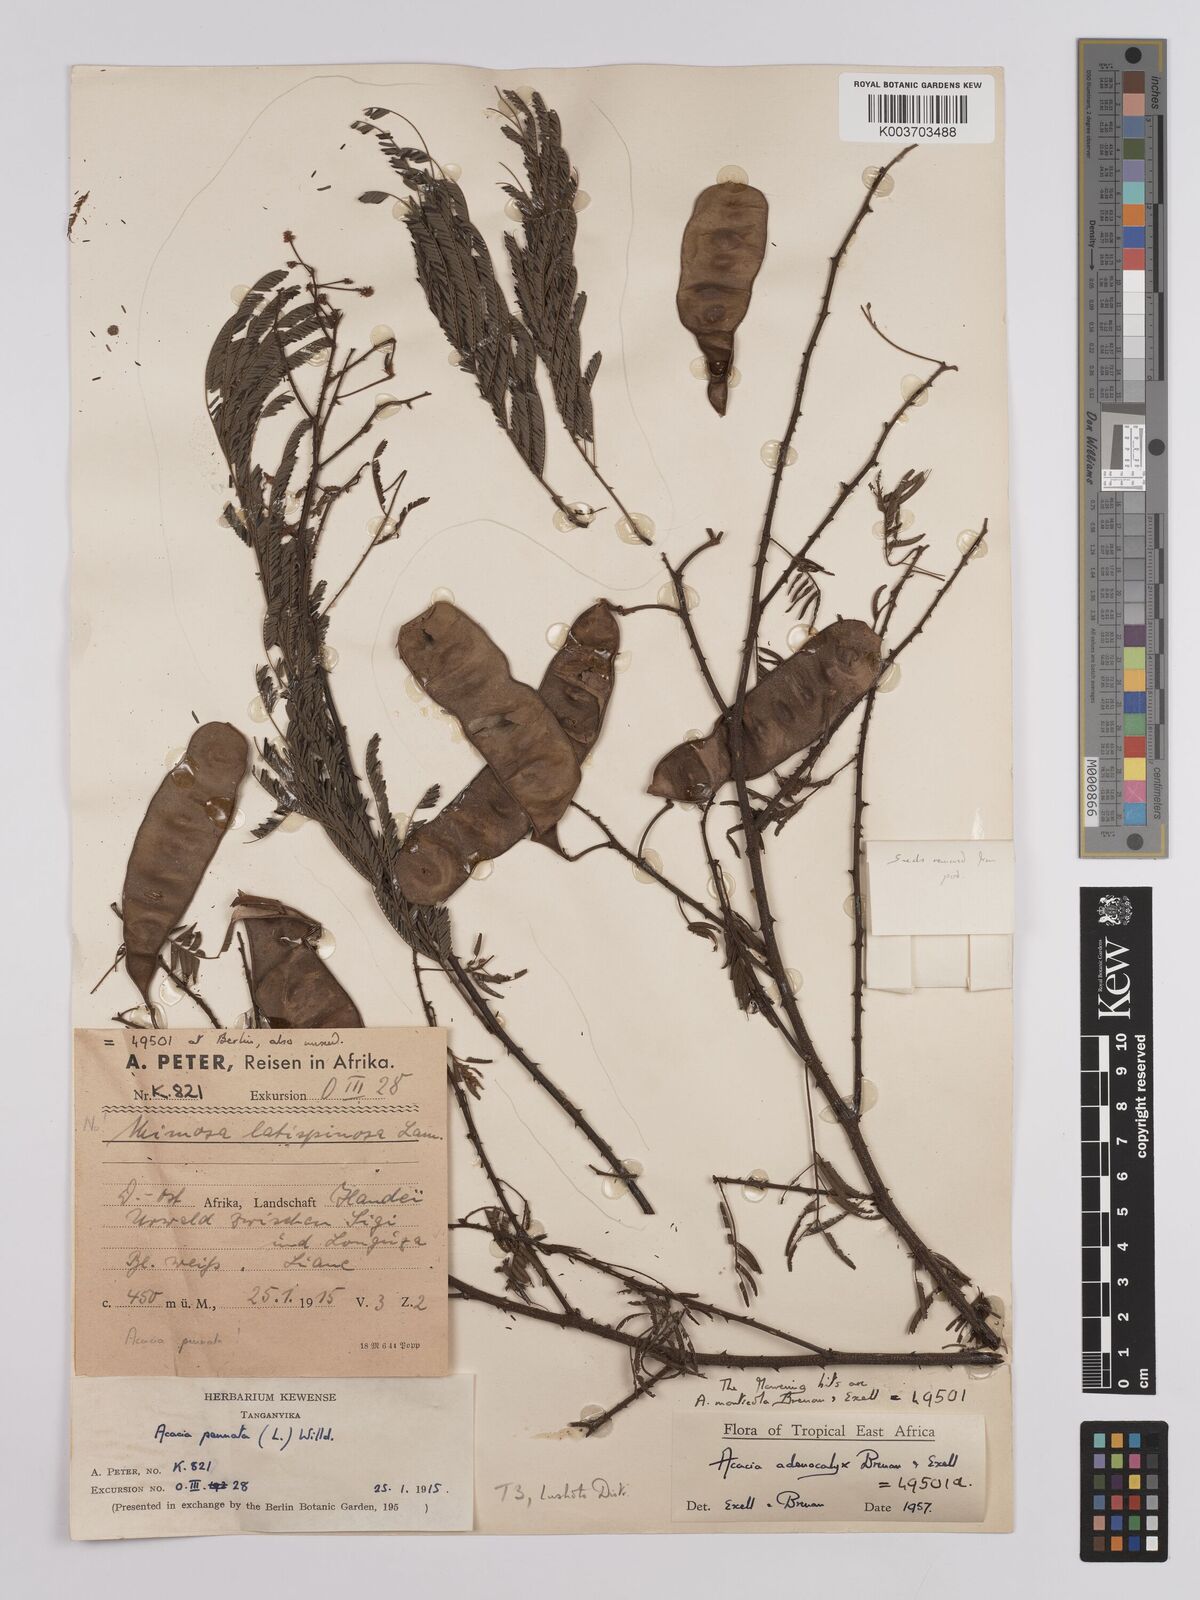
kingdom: Plantae
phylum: Tracheophyta
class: Magnoliopsida
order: Fabales
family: Fabaceae
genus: Senegalia
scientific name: Senegalia adenocalyx
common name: Pfurura
